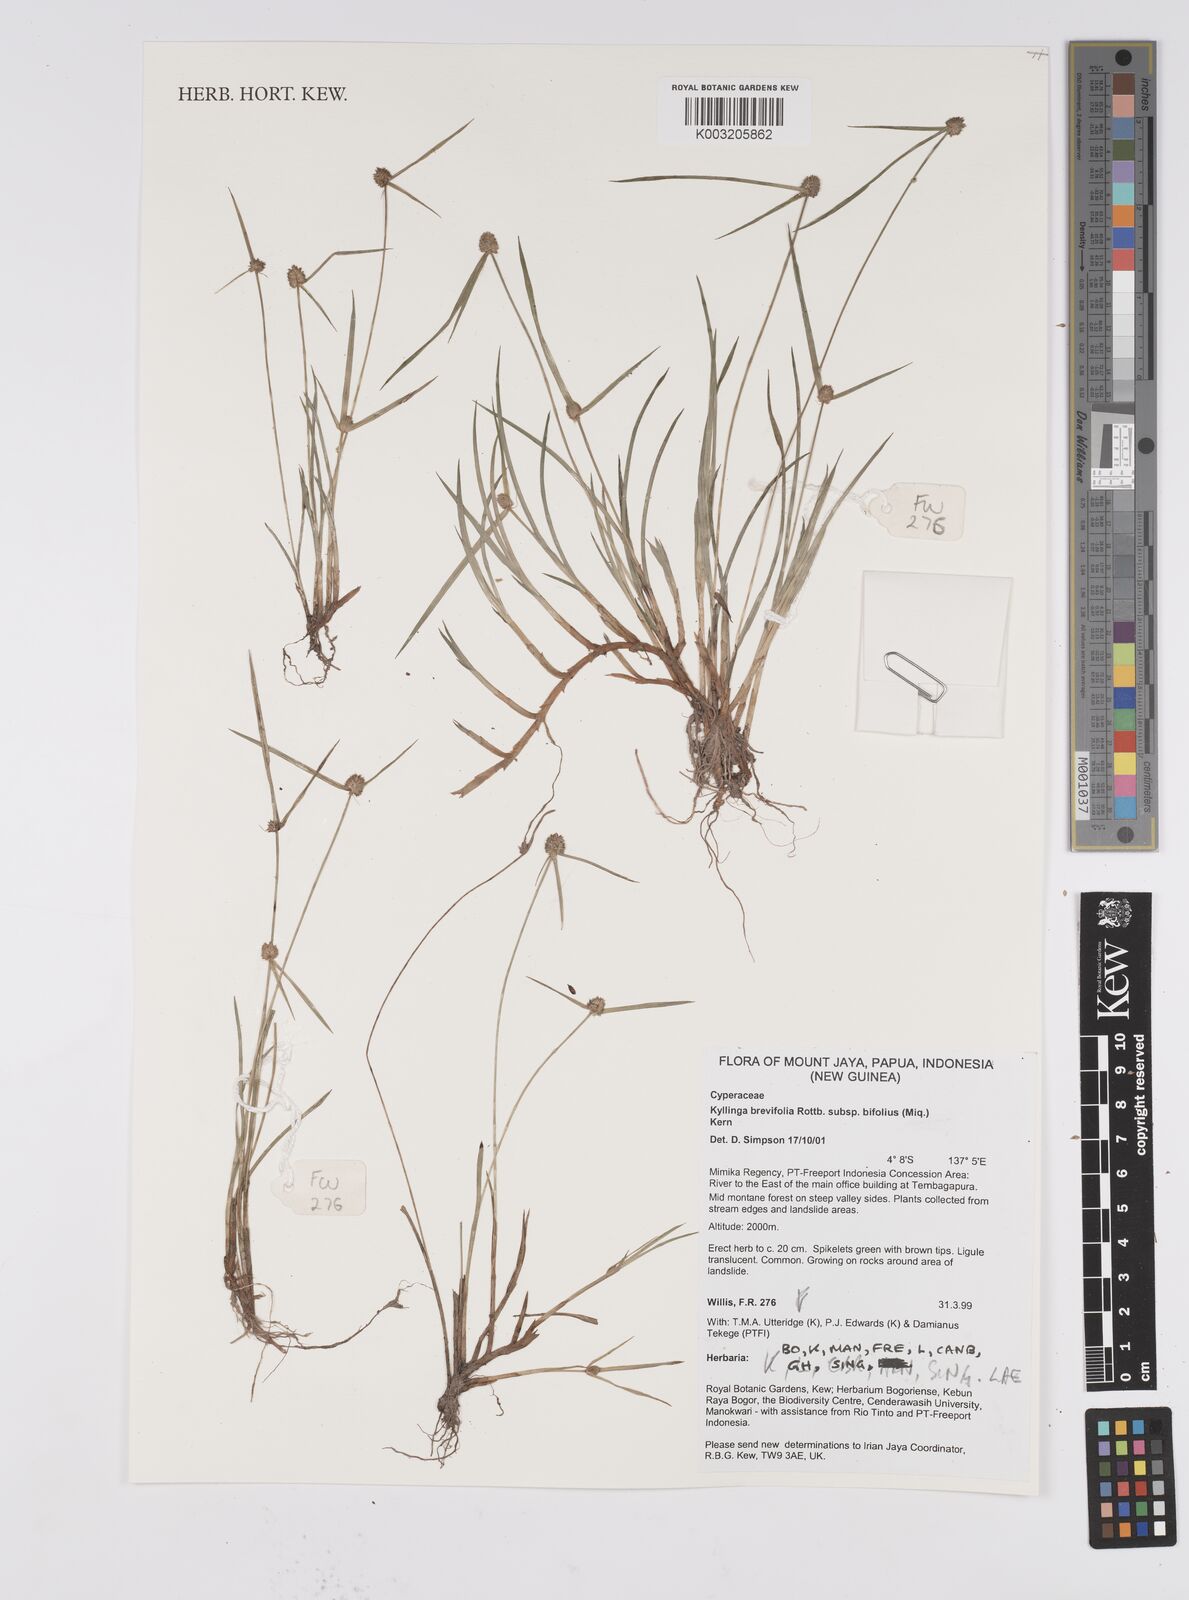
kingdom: Plantae
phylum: Tracheophyta
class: Liliopsida
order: Poales
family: Cyperaceae
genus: Cyperus
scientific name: Cyperus brevifolius
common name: Globe kyllinga
